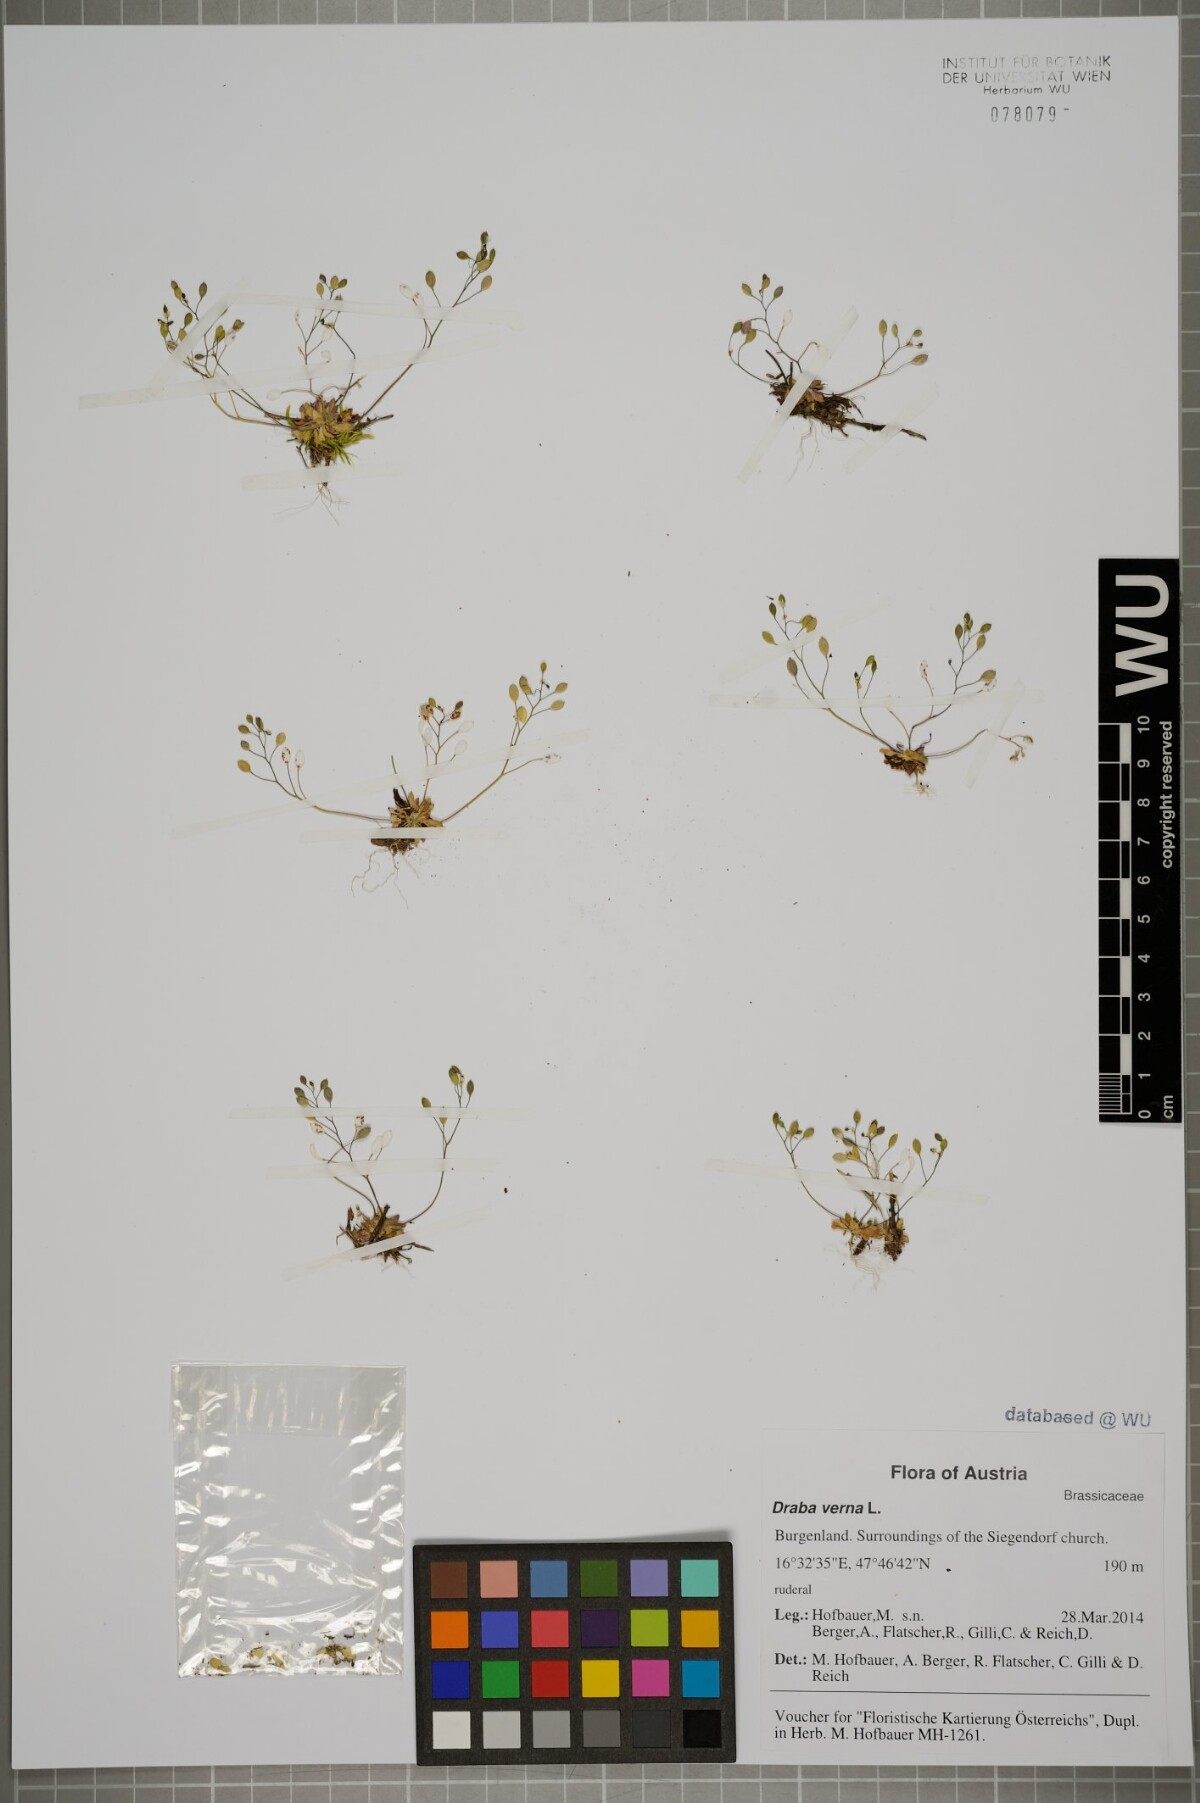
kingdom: Plantae
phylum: Tracheophyta
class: Magnoliopsida
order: Brassicales
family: Brassicaceae
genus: Draba
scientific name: Draba verna
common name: Spring draba
